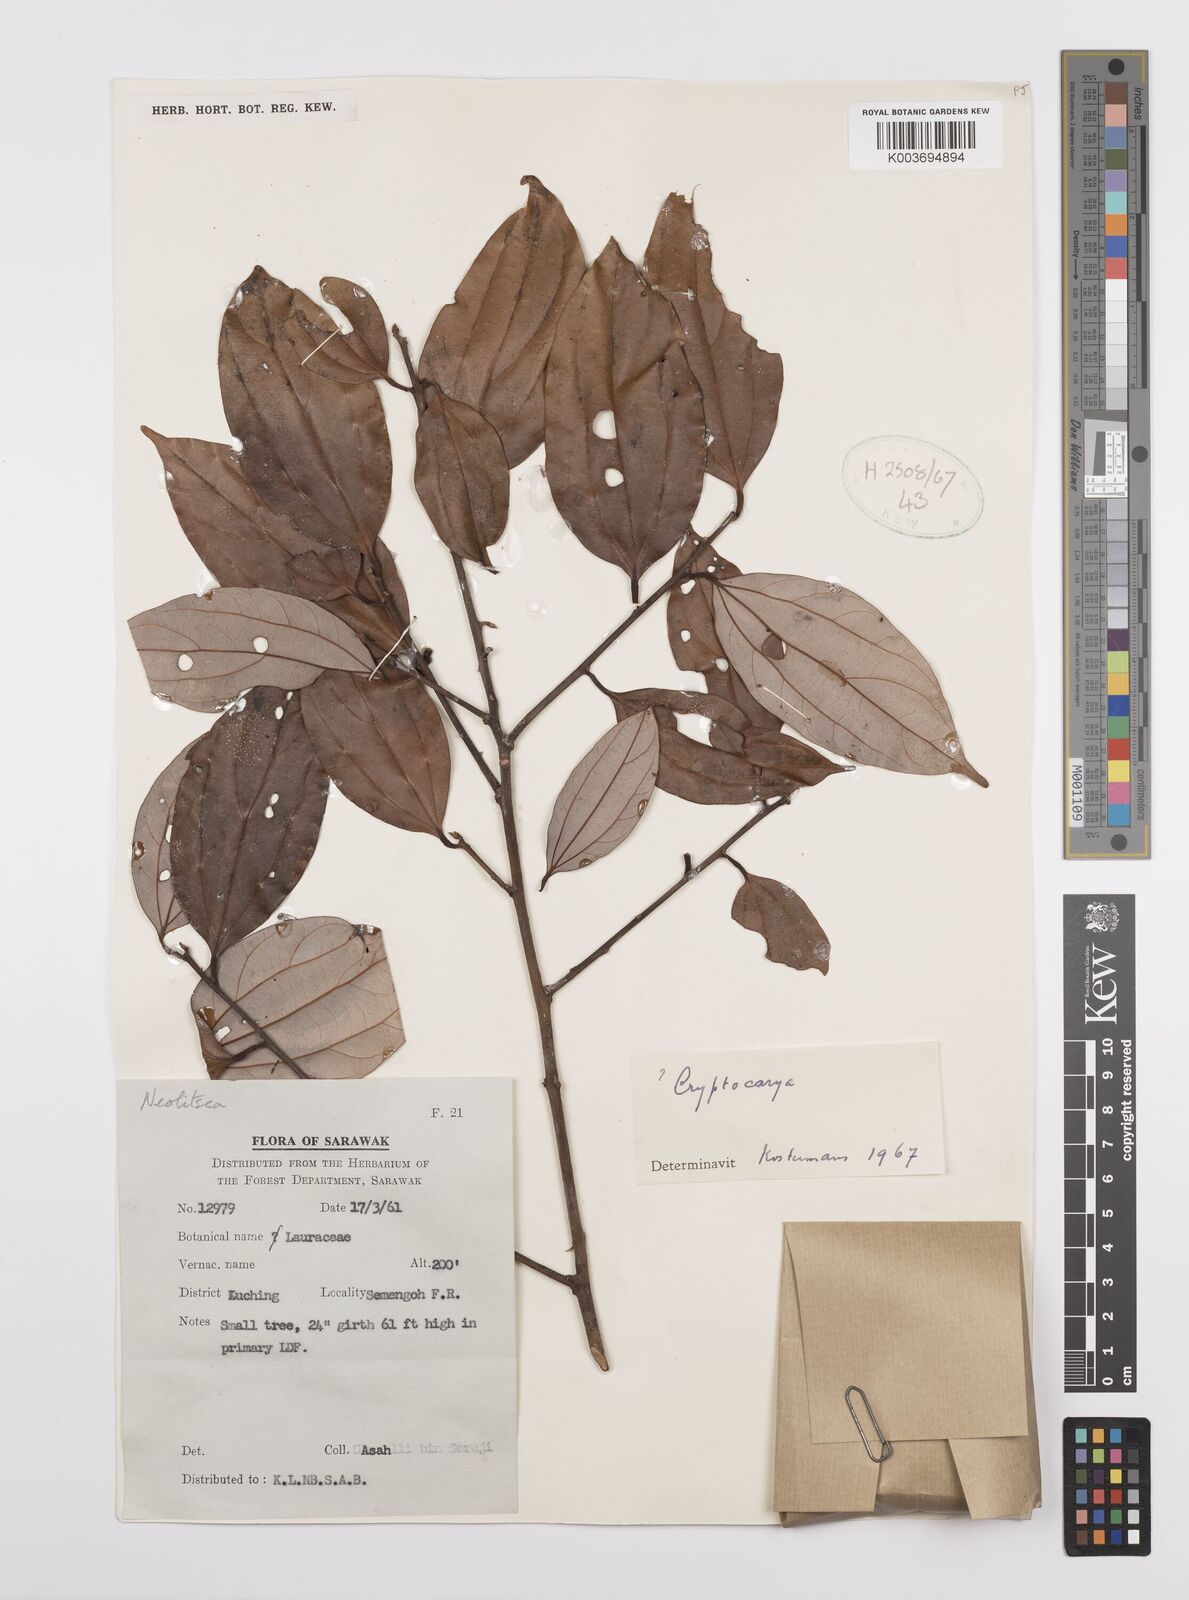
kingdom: Plantae
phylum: Tracheophyta
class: Magnoliopsida
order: Laurales
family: Lauraceae
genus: Cryptocarya
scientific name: Cryptocarya
